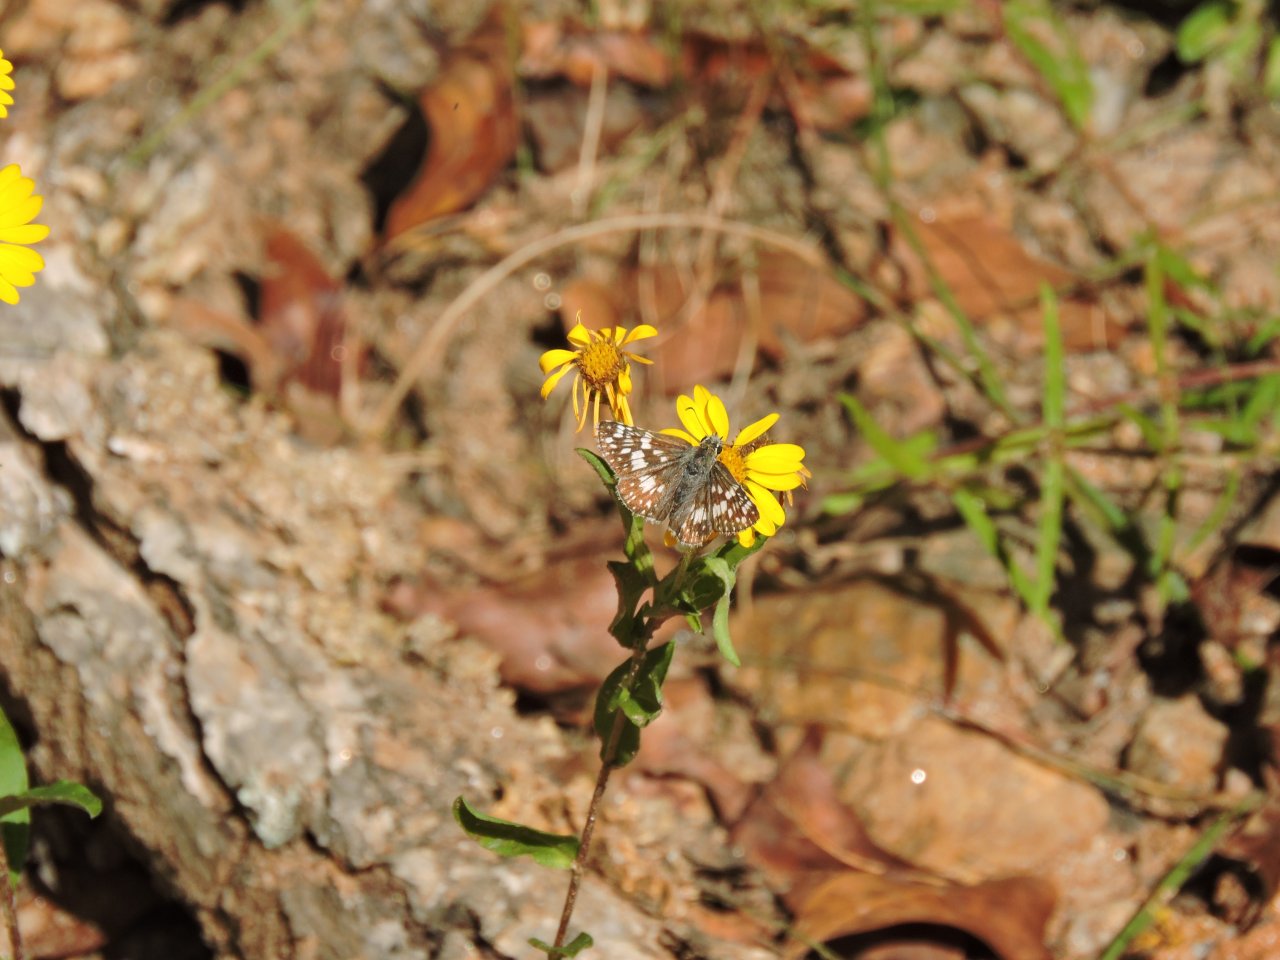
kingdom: Animalia
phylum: Arthropoda
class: Insecta
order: Lepidoptera
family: Hesperiidae
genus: Pyrgus
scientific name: Pyrgus
